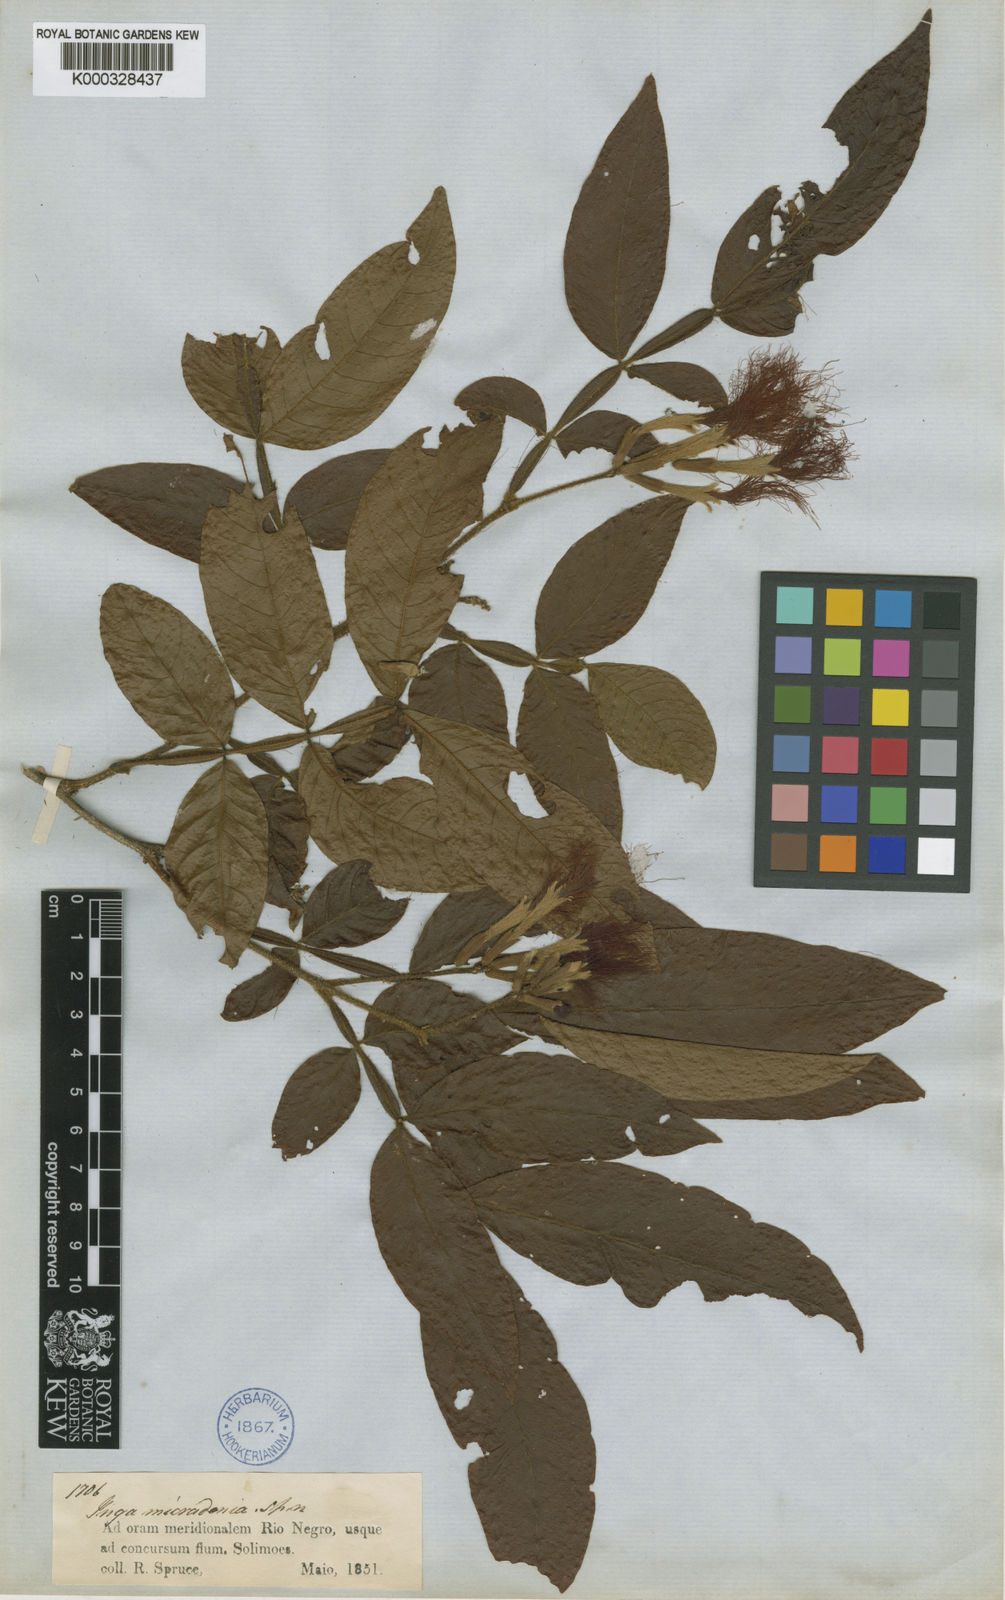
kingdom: Plantae
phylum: Tracheophyta
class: Magnoliopsida
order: Fabales
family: Fabaceae
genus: Inga
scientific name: Inga micradenia
